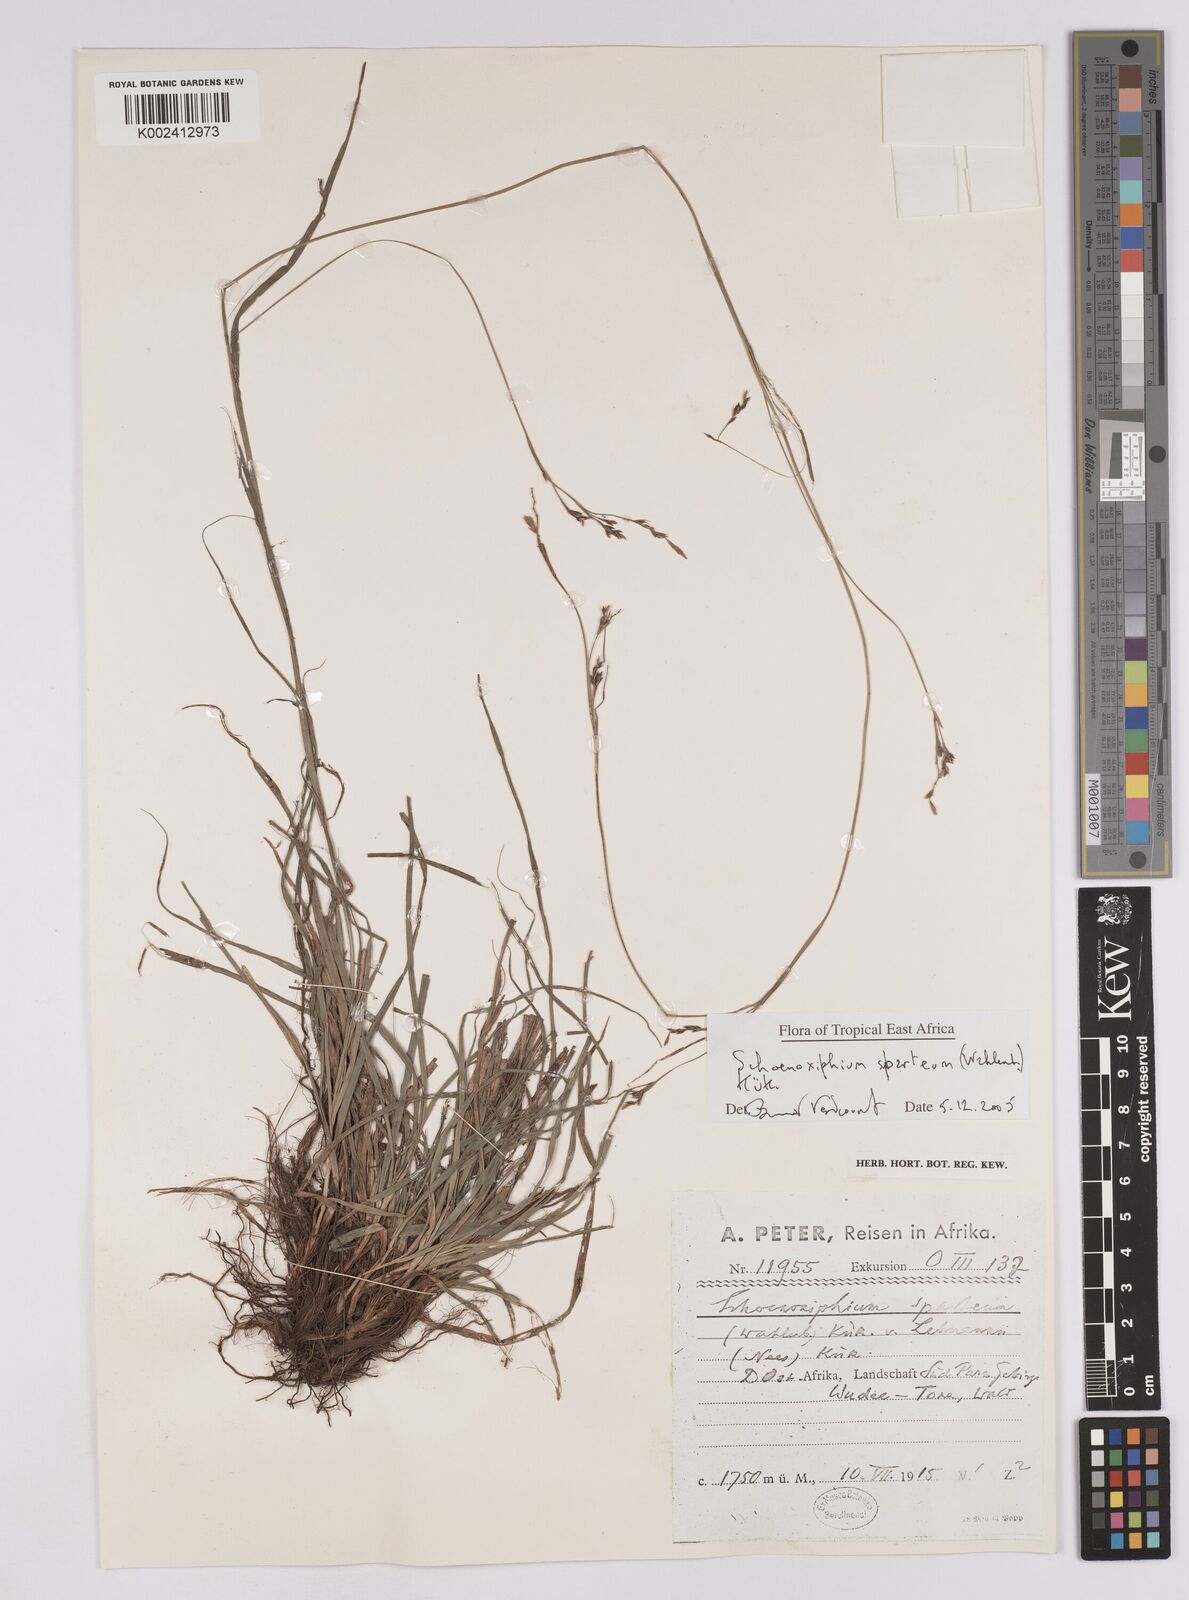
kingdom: Plantae
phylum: Tracheophyta
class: Liliopsida
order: Poales
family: Cyperaceae
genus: Carex
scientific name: Carex spartea
